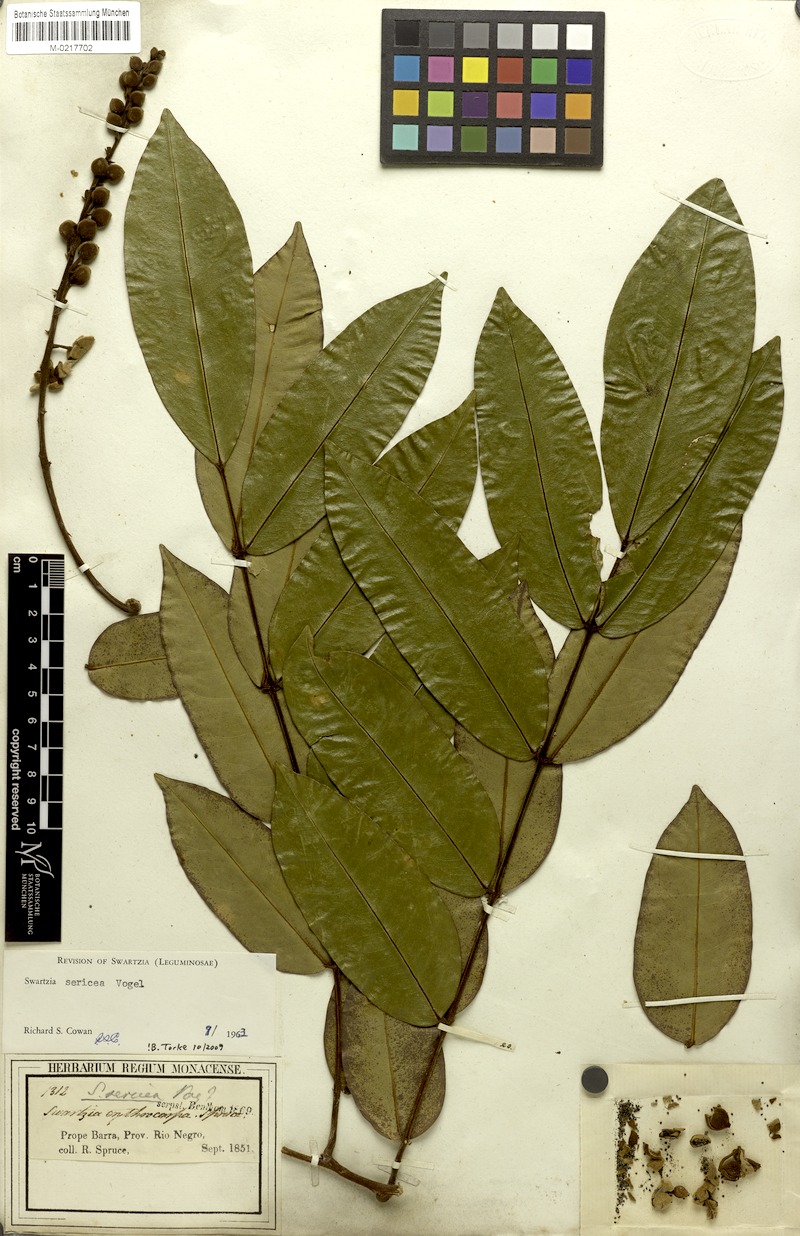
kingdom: Plantae
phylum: Tracheophyta
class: Magnoliopsida
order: Fabales
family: Fabaceae
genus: Swartzia
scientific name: Swartzia sericea
